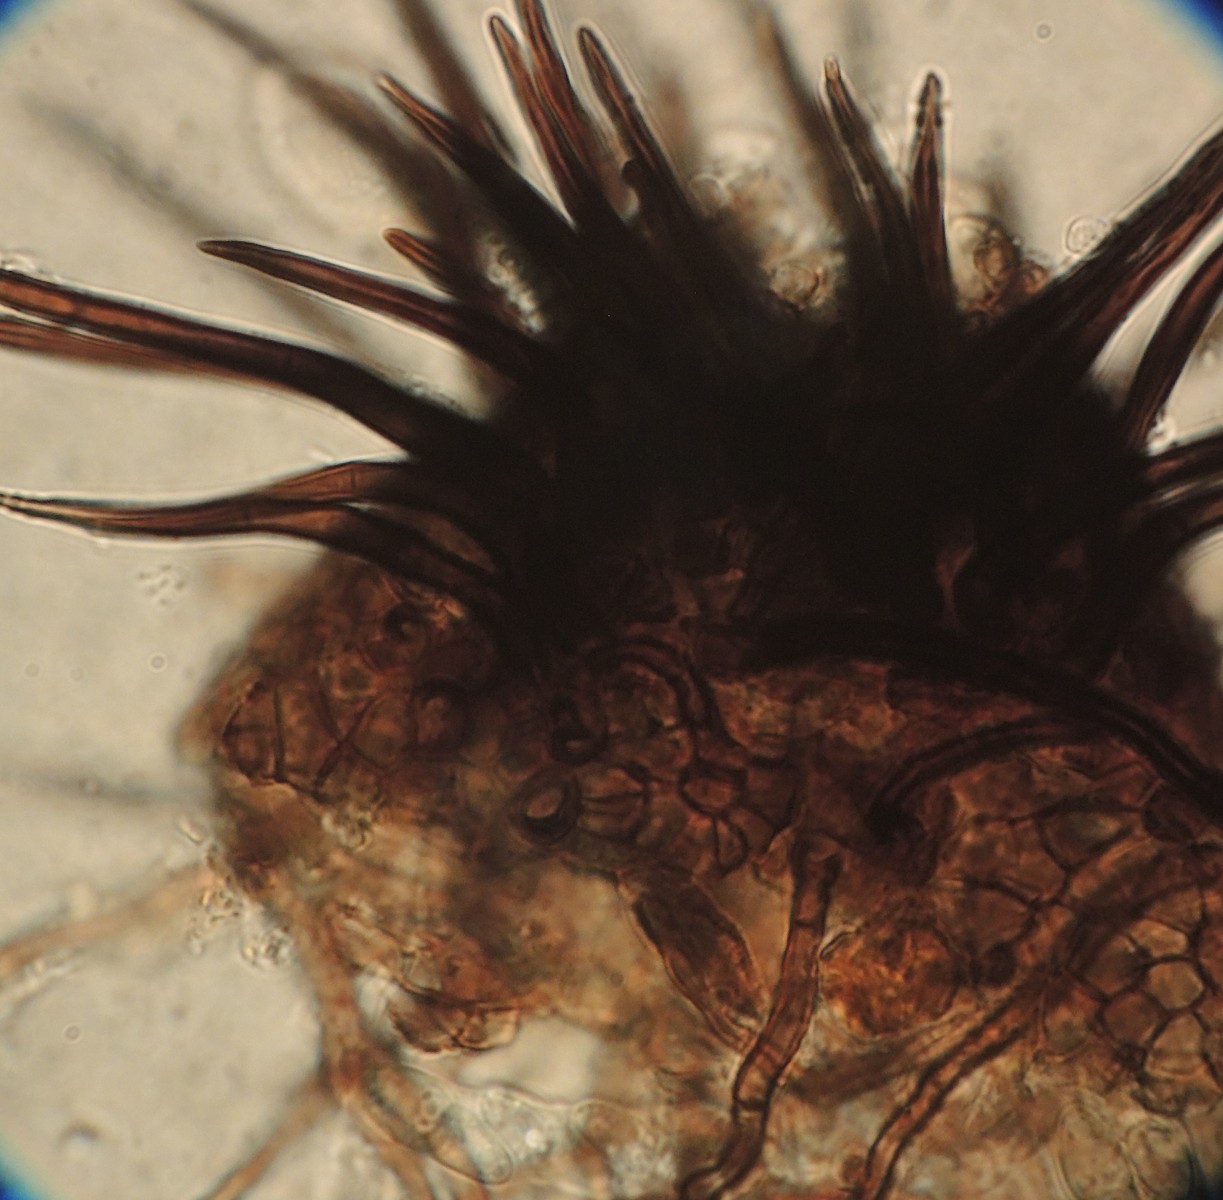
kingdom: Fungi
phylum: Ascomycota
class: Dothideomycetes
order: Venturiales
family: Venturiaceae
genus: Gibbera
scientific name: Gibbera
